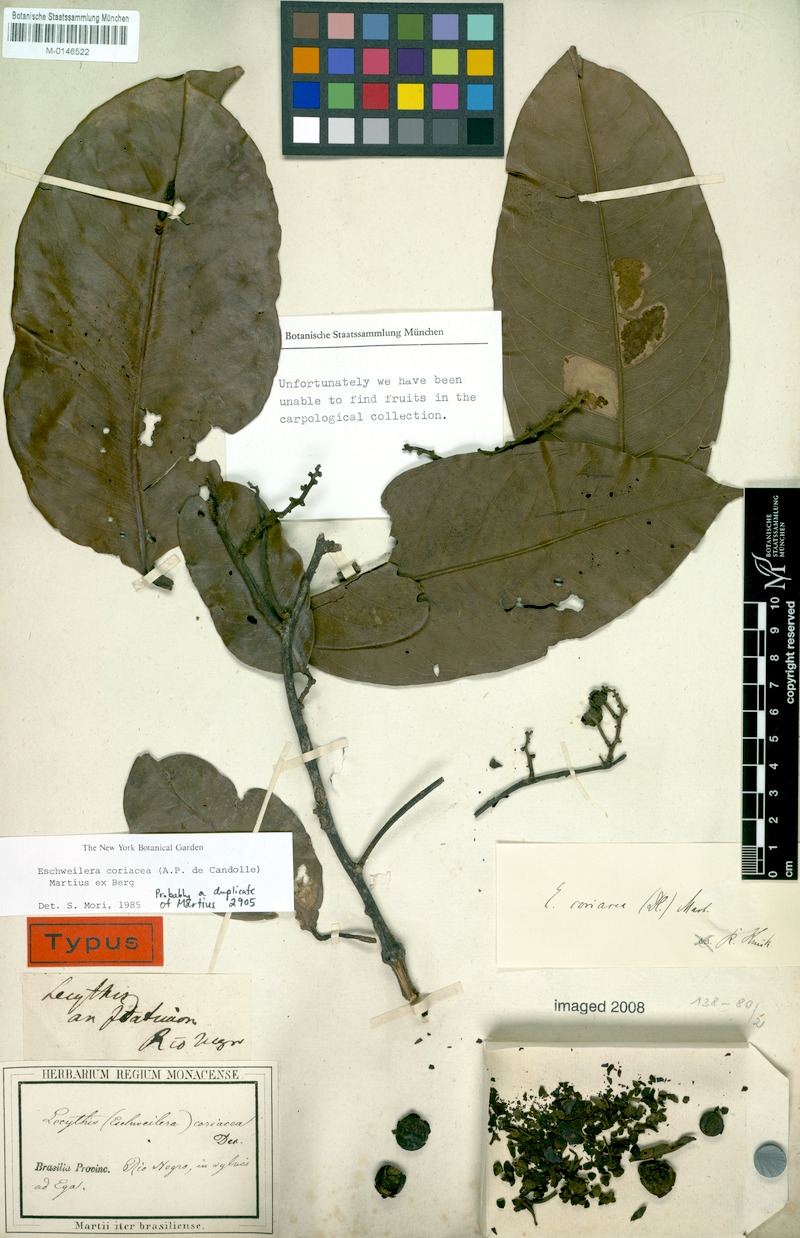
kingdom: Plantae
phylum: Tracheophyta
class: Magnoliopsida
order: Ericales
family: Lecythidaceae
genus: Eschweilera
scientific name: Eschweilera coriacea
